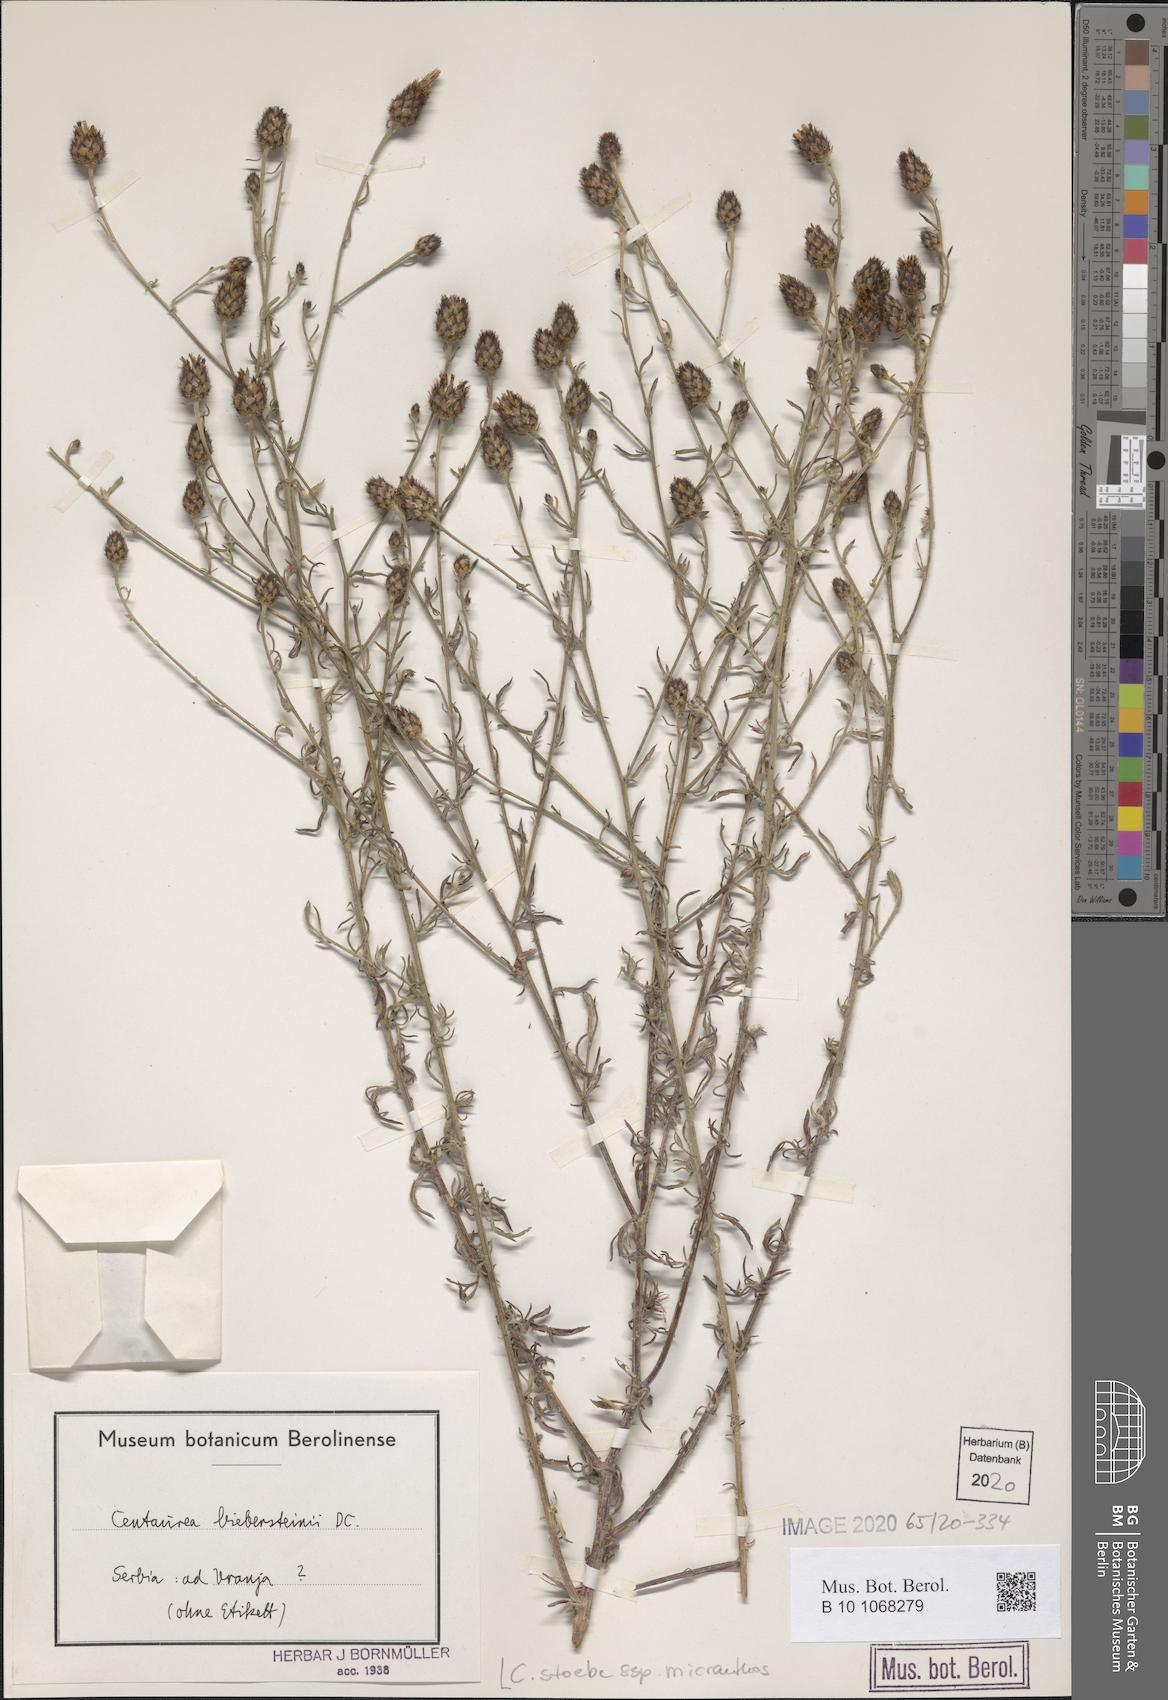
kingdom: Plantae
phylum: Tracheophyta
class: Magnoliopsida
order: Asterales
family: Asteraceae
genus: Centaurea
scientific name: Centaurea australis
